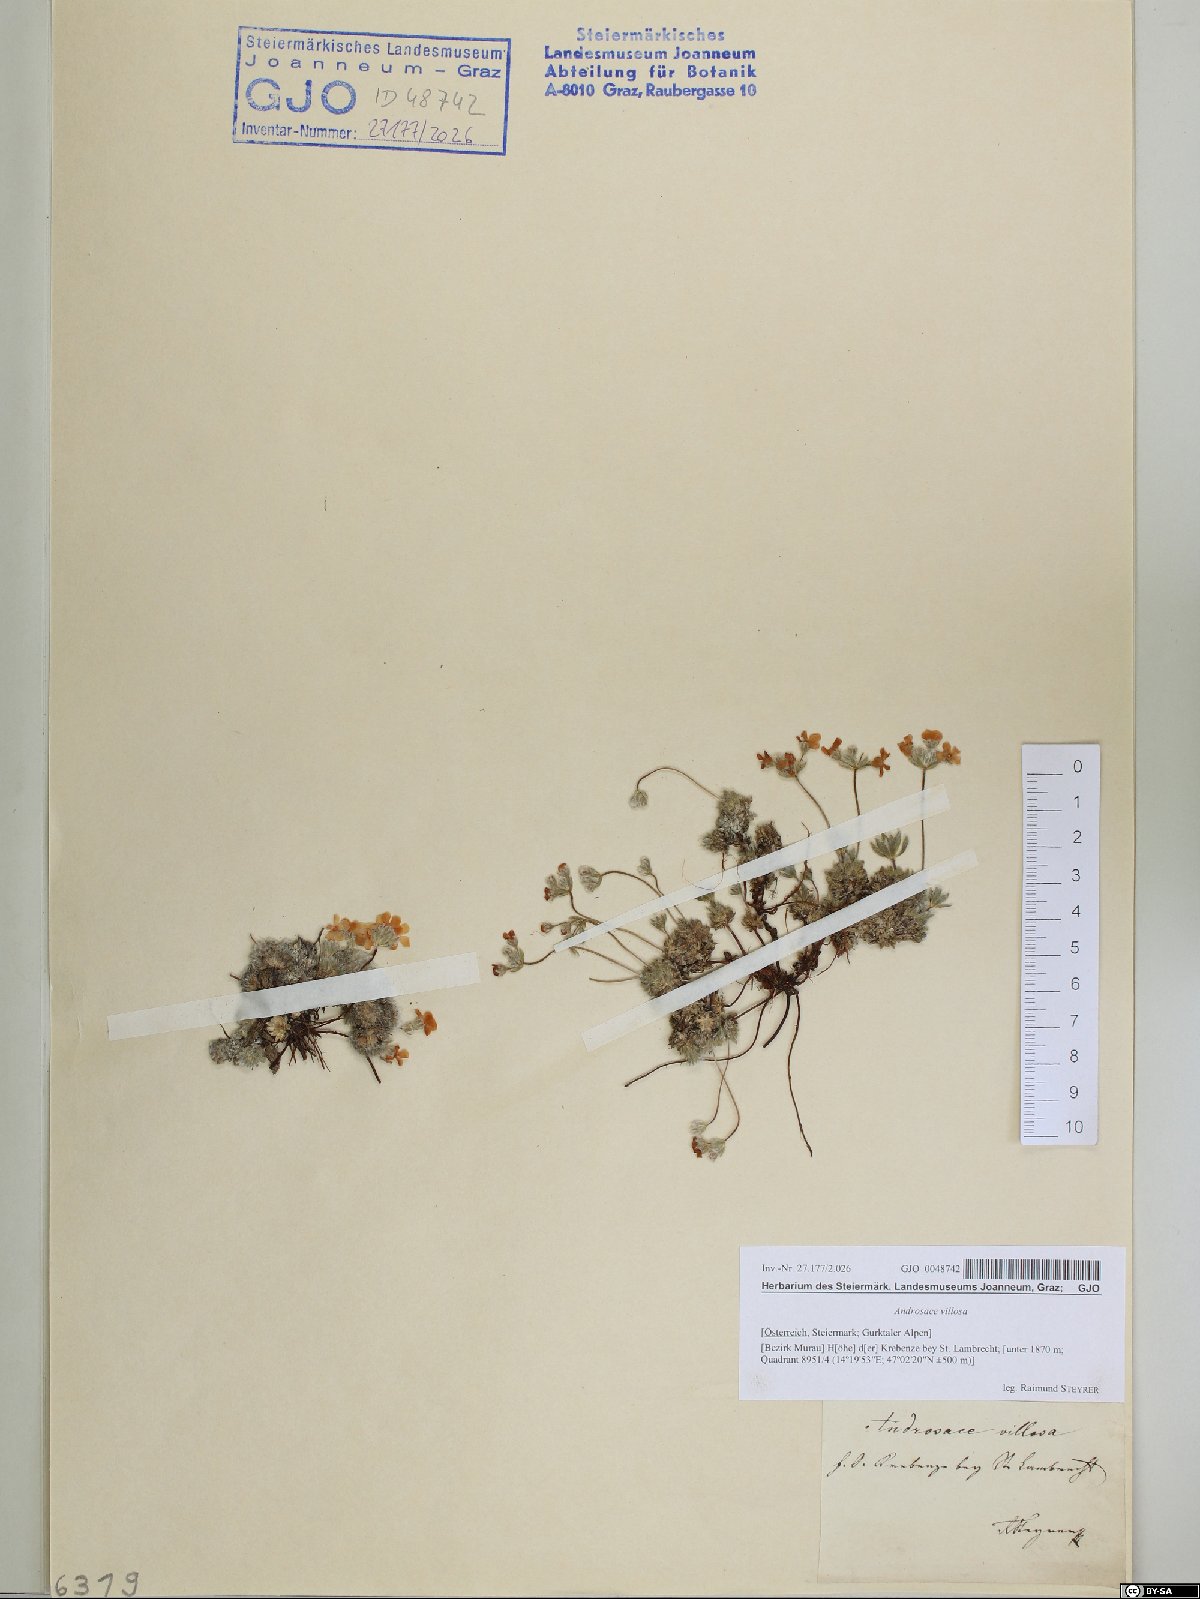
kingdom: Plantae
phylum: Tracheophyta
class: Magnoliopsida
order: Ericales
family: Primulaceae
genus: Androsace
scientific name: Androsace villosa
